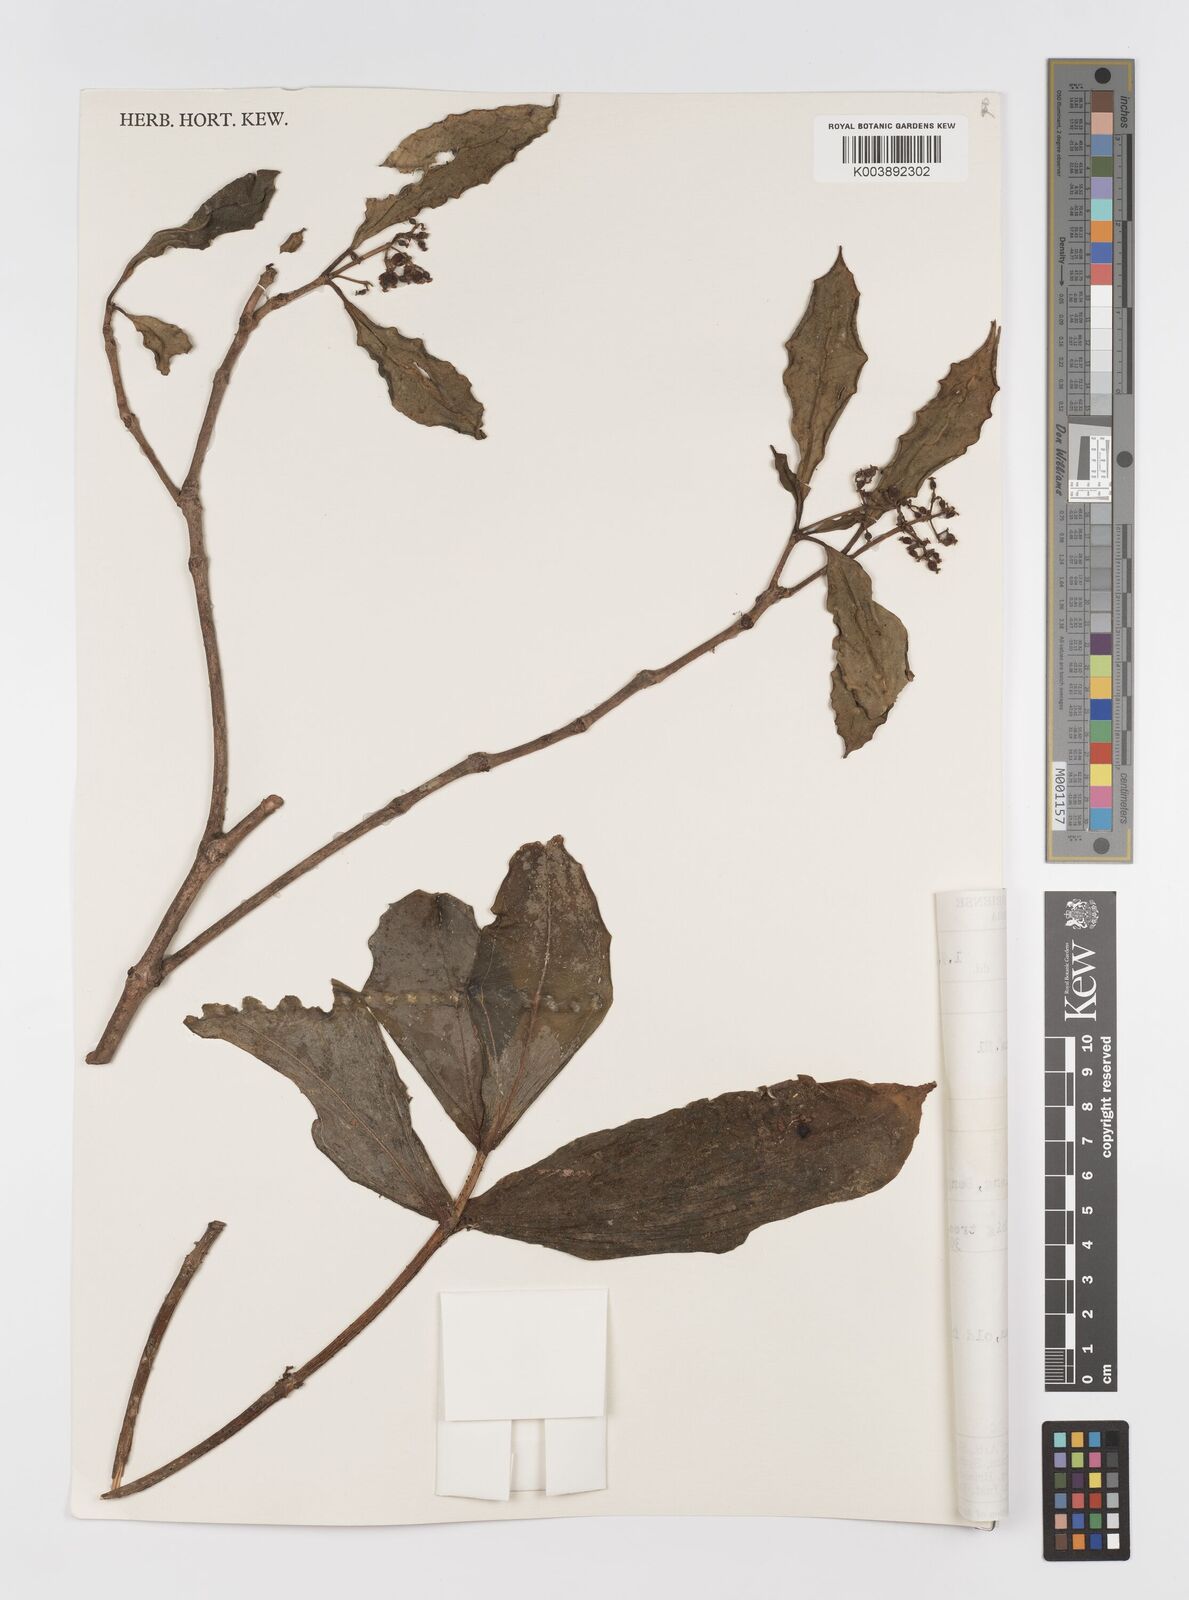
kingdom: Plantae
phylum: Tracheophyta
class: Magnoliopsida
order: Myrtales
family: Melastomataceae
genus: Medinilla
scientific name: Medinilla
